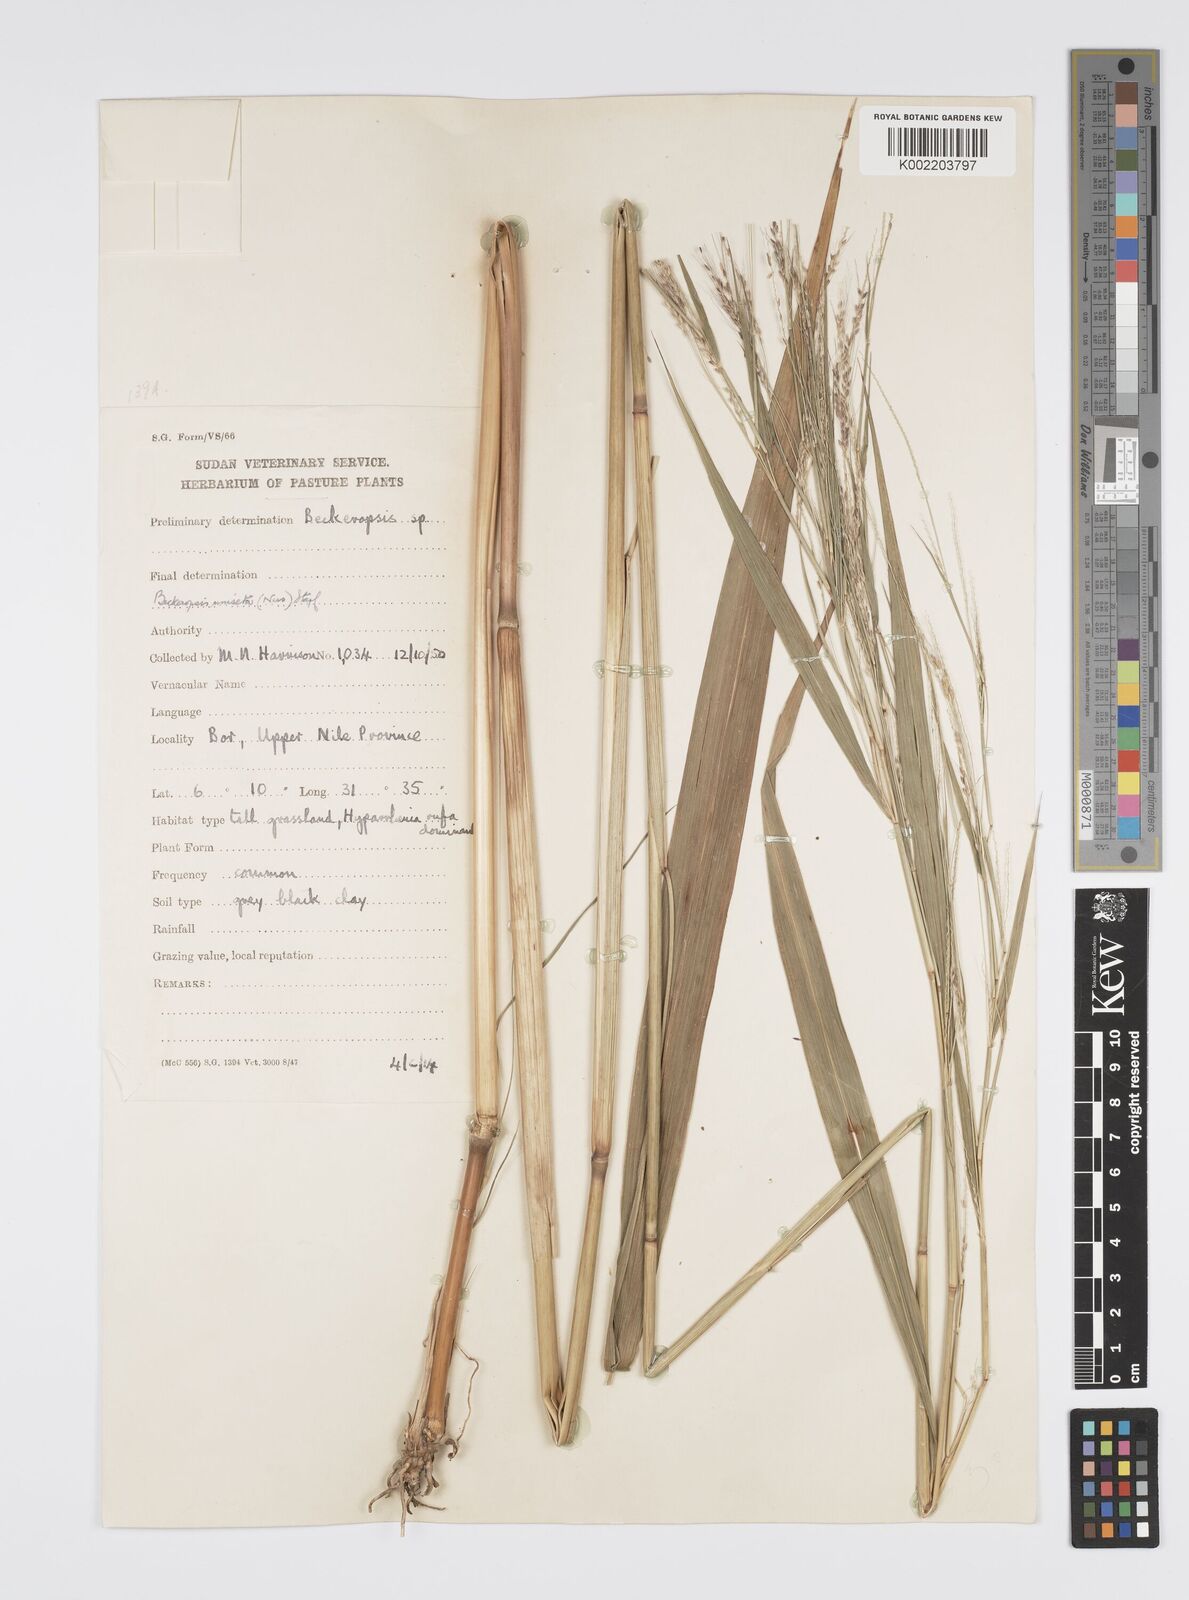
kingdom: Plantae
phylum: Tracheophyta
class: Liliopsida
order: Poales
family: Poaceae
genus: Cenchrus
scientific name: Cenchrus unisetus
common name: Natal grass
